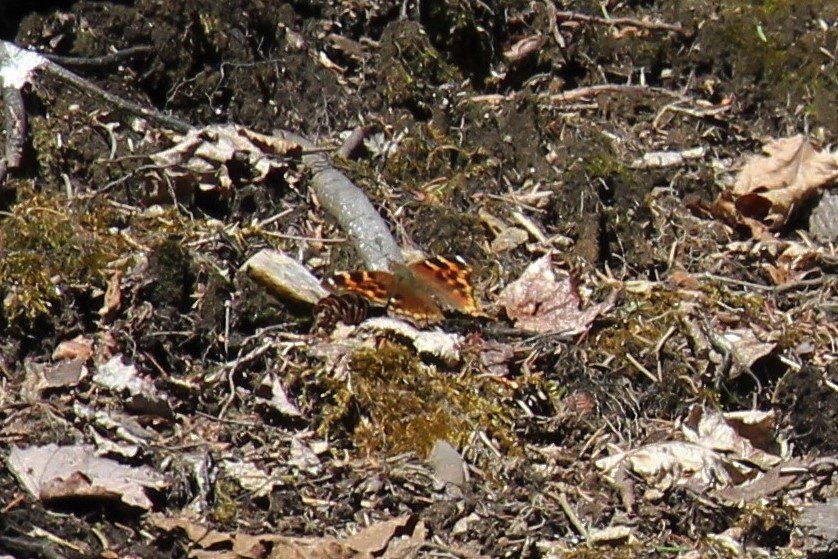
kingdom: Animalia
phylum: Arthropoda
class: Insecta
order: Lepidoptera
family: Nymphalidae
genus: Polygonia
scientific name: Polygonia vaualbum
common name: Compton Tortoiseshell
